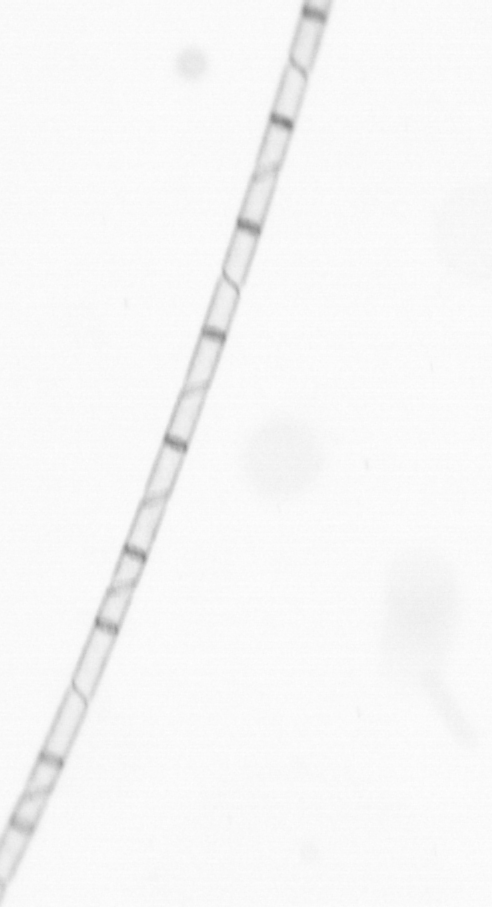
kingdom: Chromista
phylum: Ochrophyta
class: Bacillariophyceae
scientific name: Bacillariophyceae
